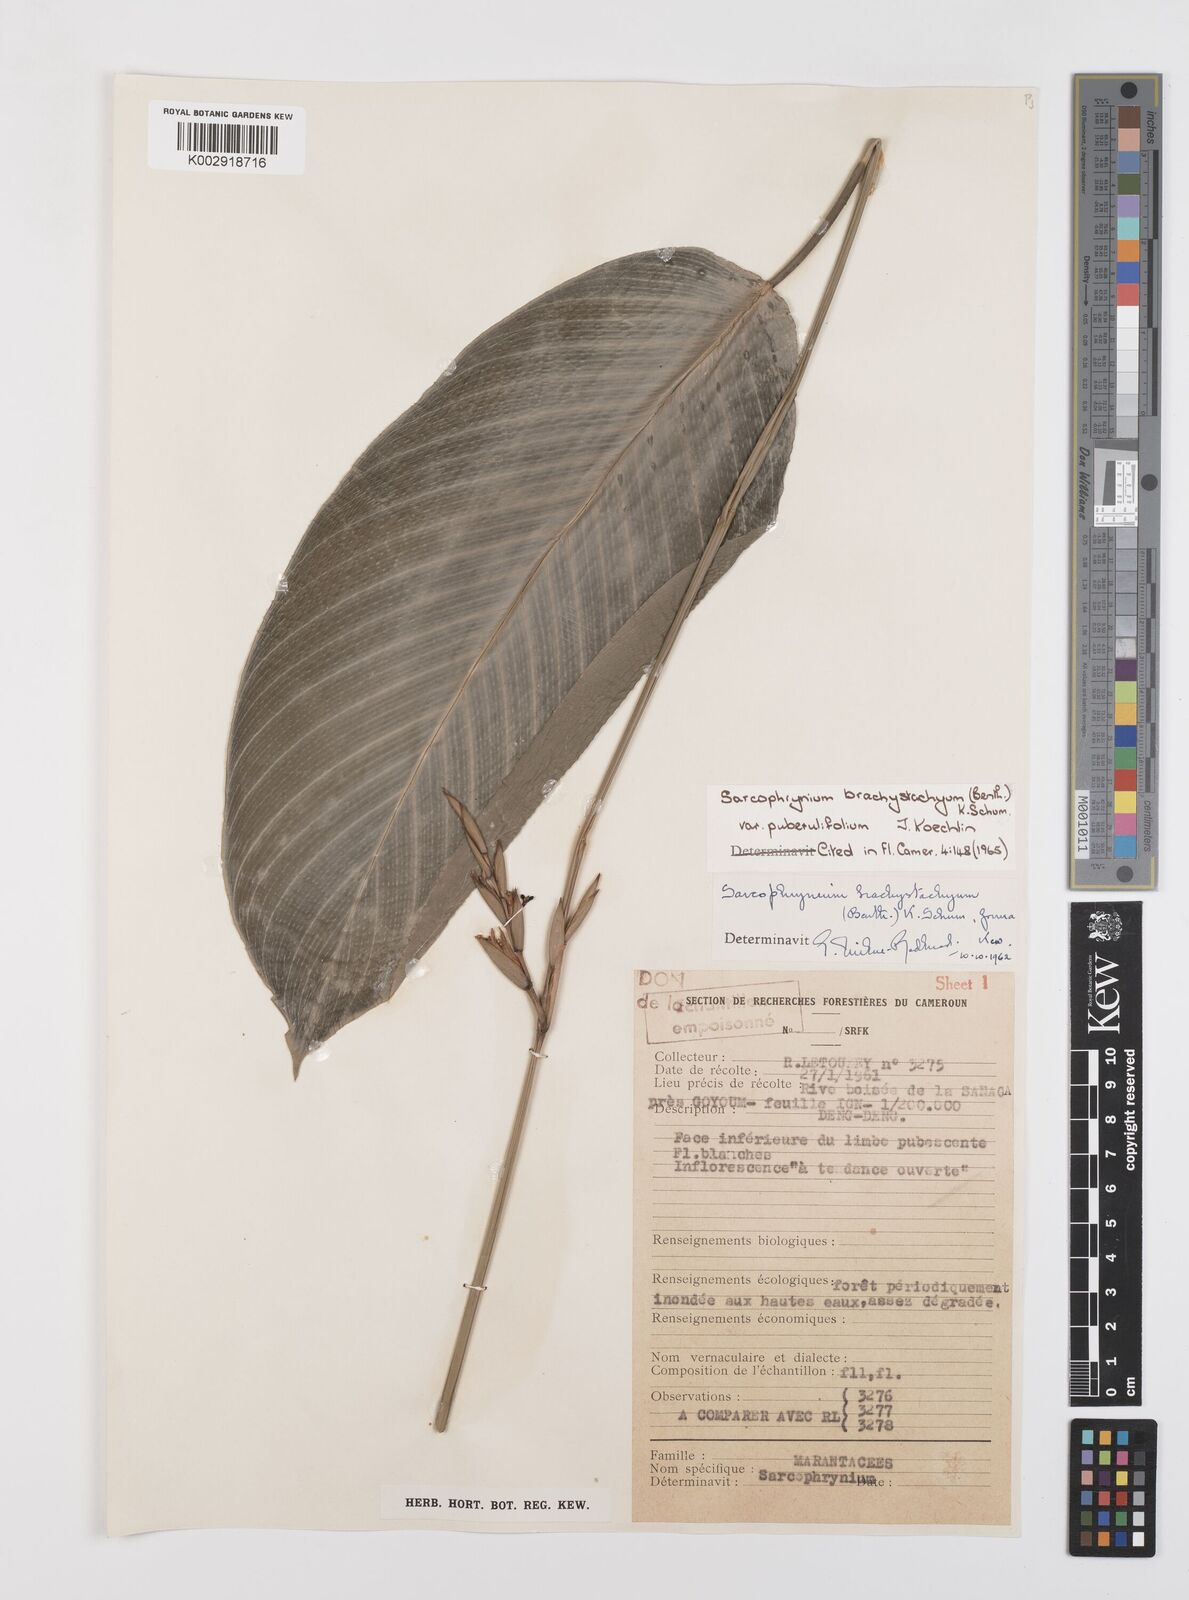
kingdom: Plantae
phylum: Tracheophyta
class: Liliopsida
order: Zingiberales
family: Marantaceae
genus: Sarcophrynium
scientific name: Sarcophrynium brachystachyum
